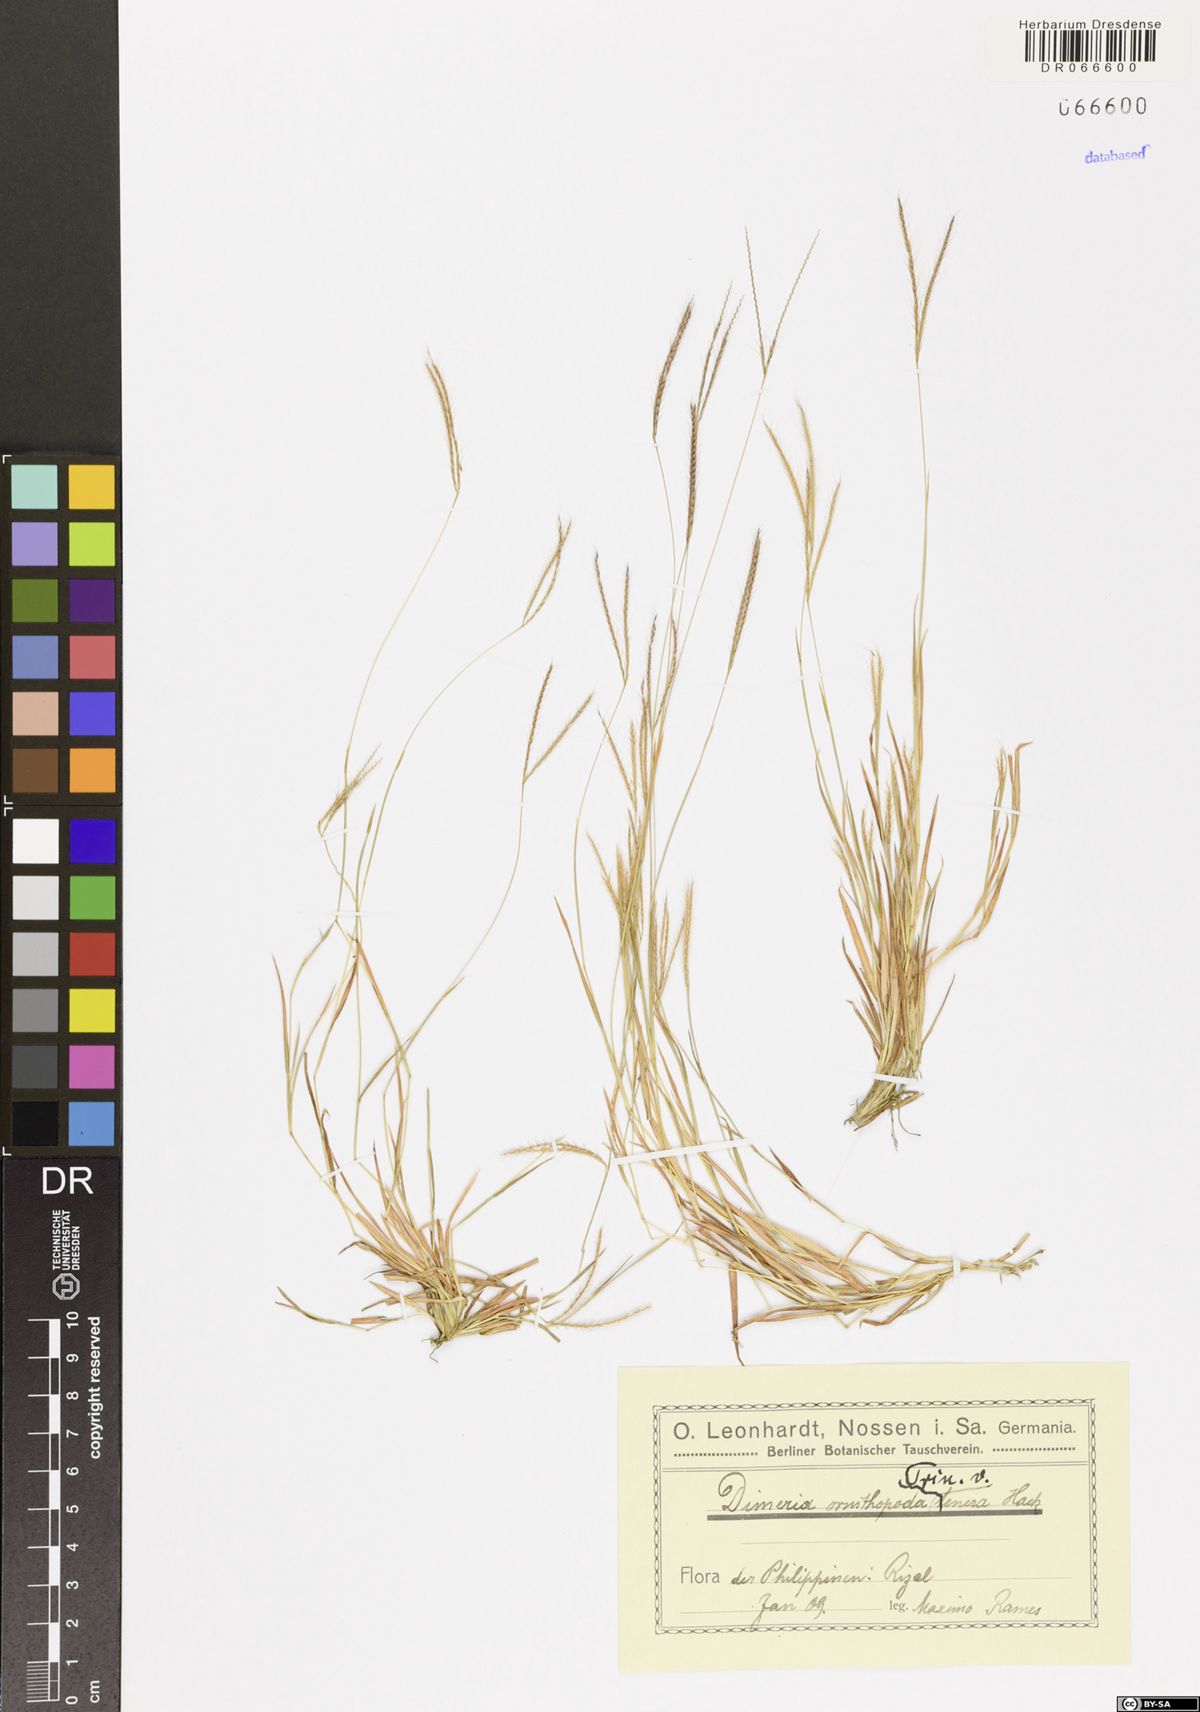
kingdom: Plantae
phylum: Tracheophyta
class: Liliopsida
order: Poales
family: Poaceae
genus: Dimeria
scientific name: Dimeria ornithopoda
